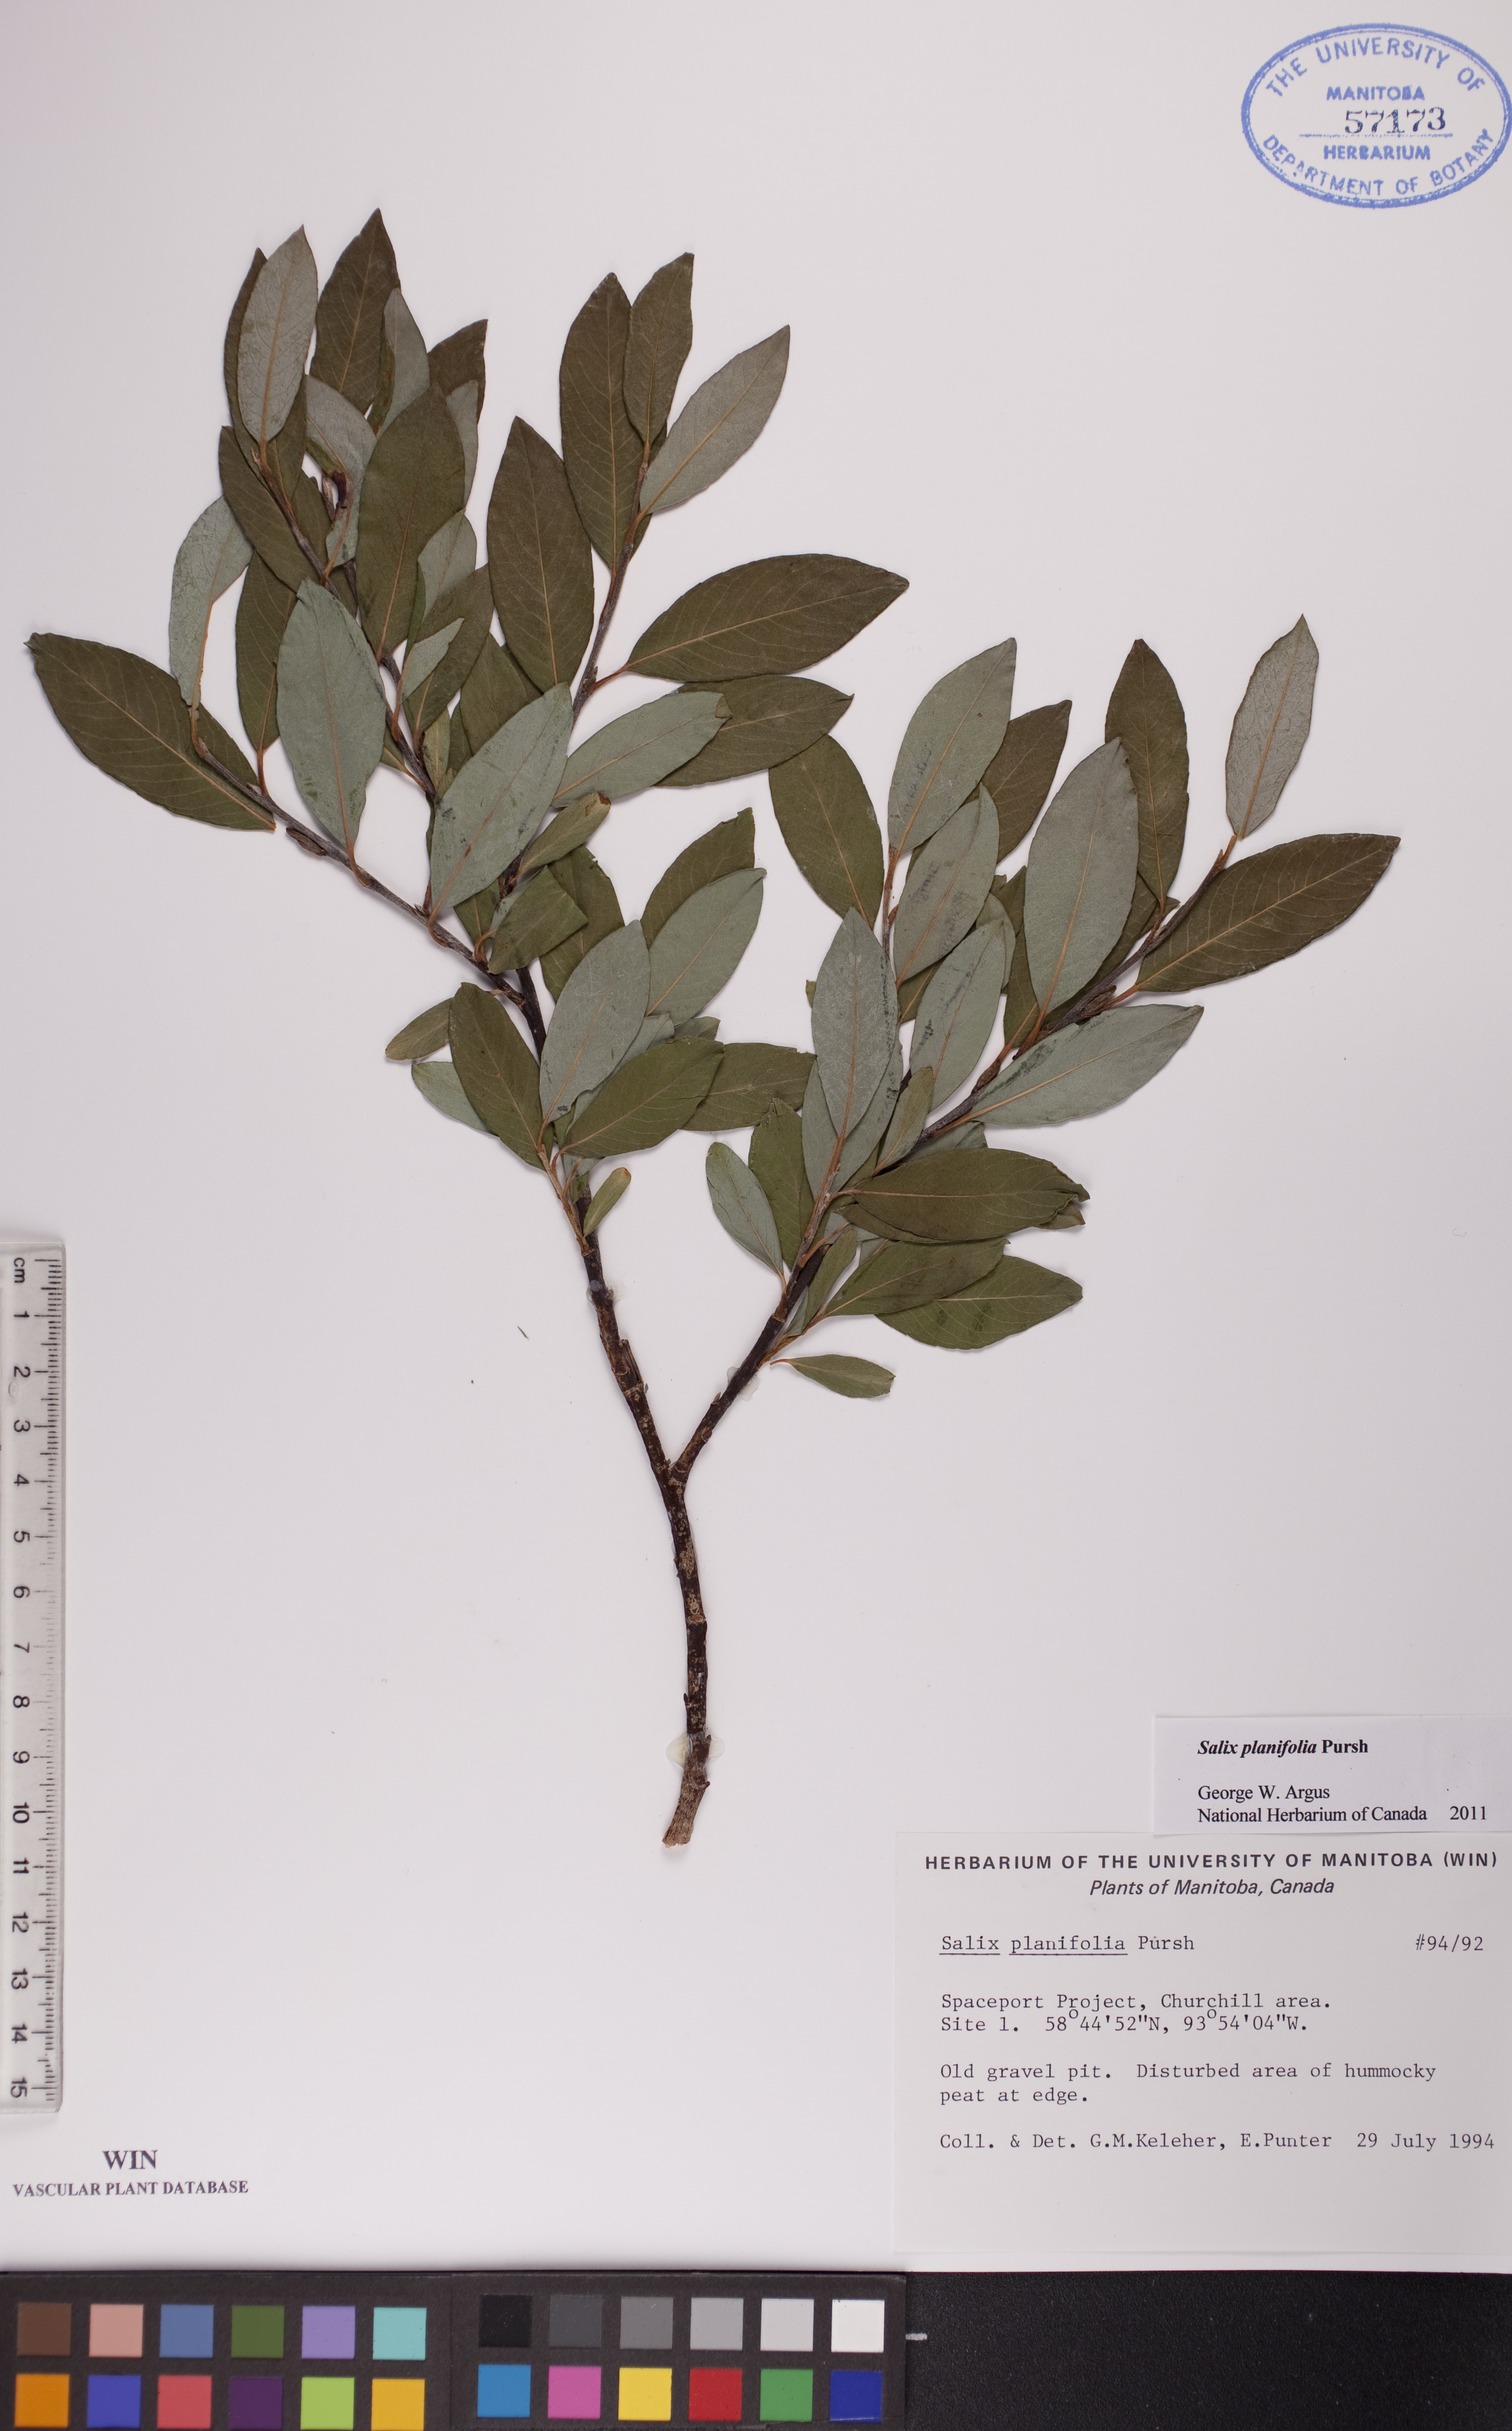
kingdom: Plantae
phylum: Tracheophyta
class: Magnoliopsida
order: Malpighiales
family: Salicaceae
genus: Salix
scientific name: Salix planifolia
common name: Mountain willow
